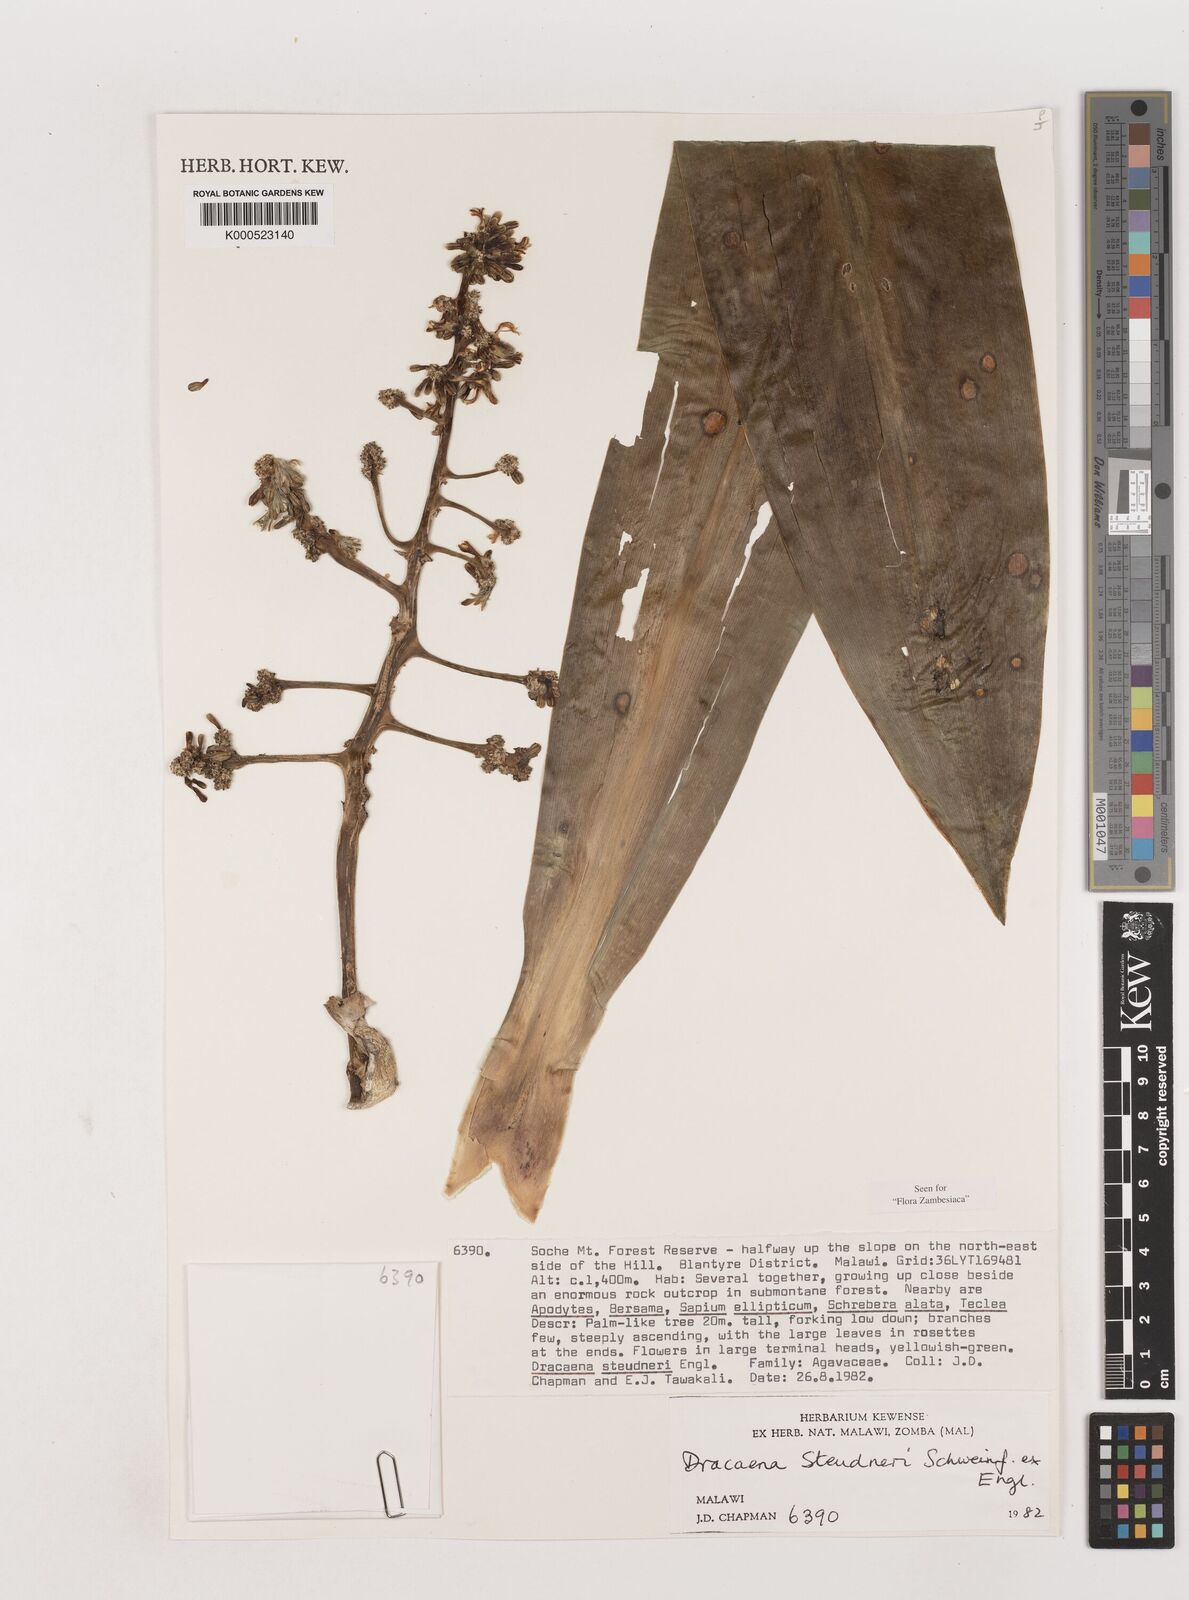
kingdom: Plantae
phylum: Tracheophyta
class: Liliopsida
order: Asparagales
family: Asparagaceae
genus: Dracaena
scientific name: Dracaena steudneri
